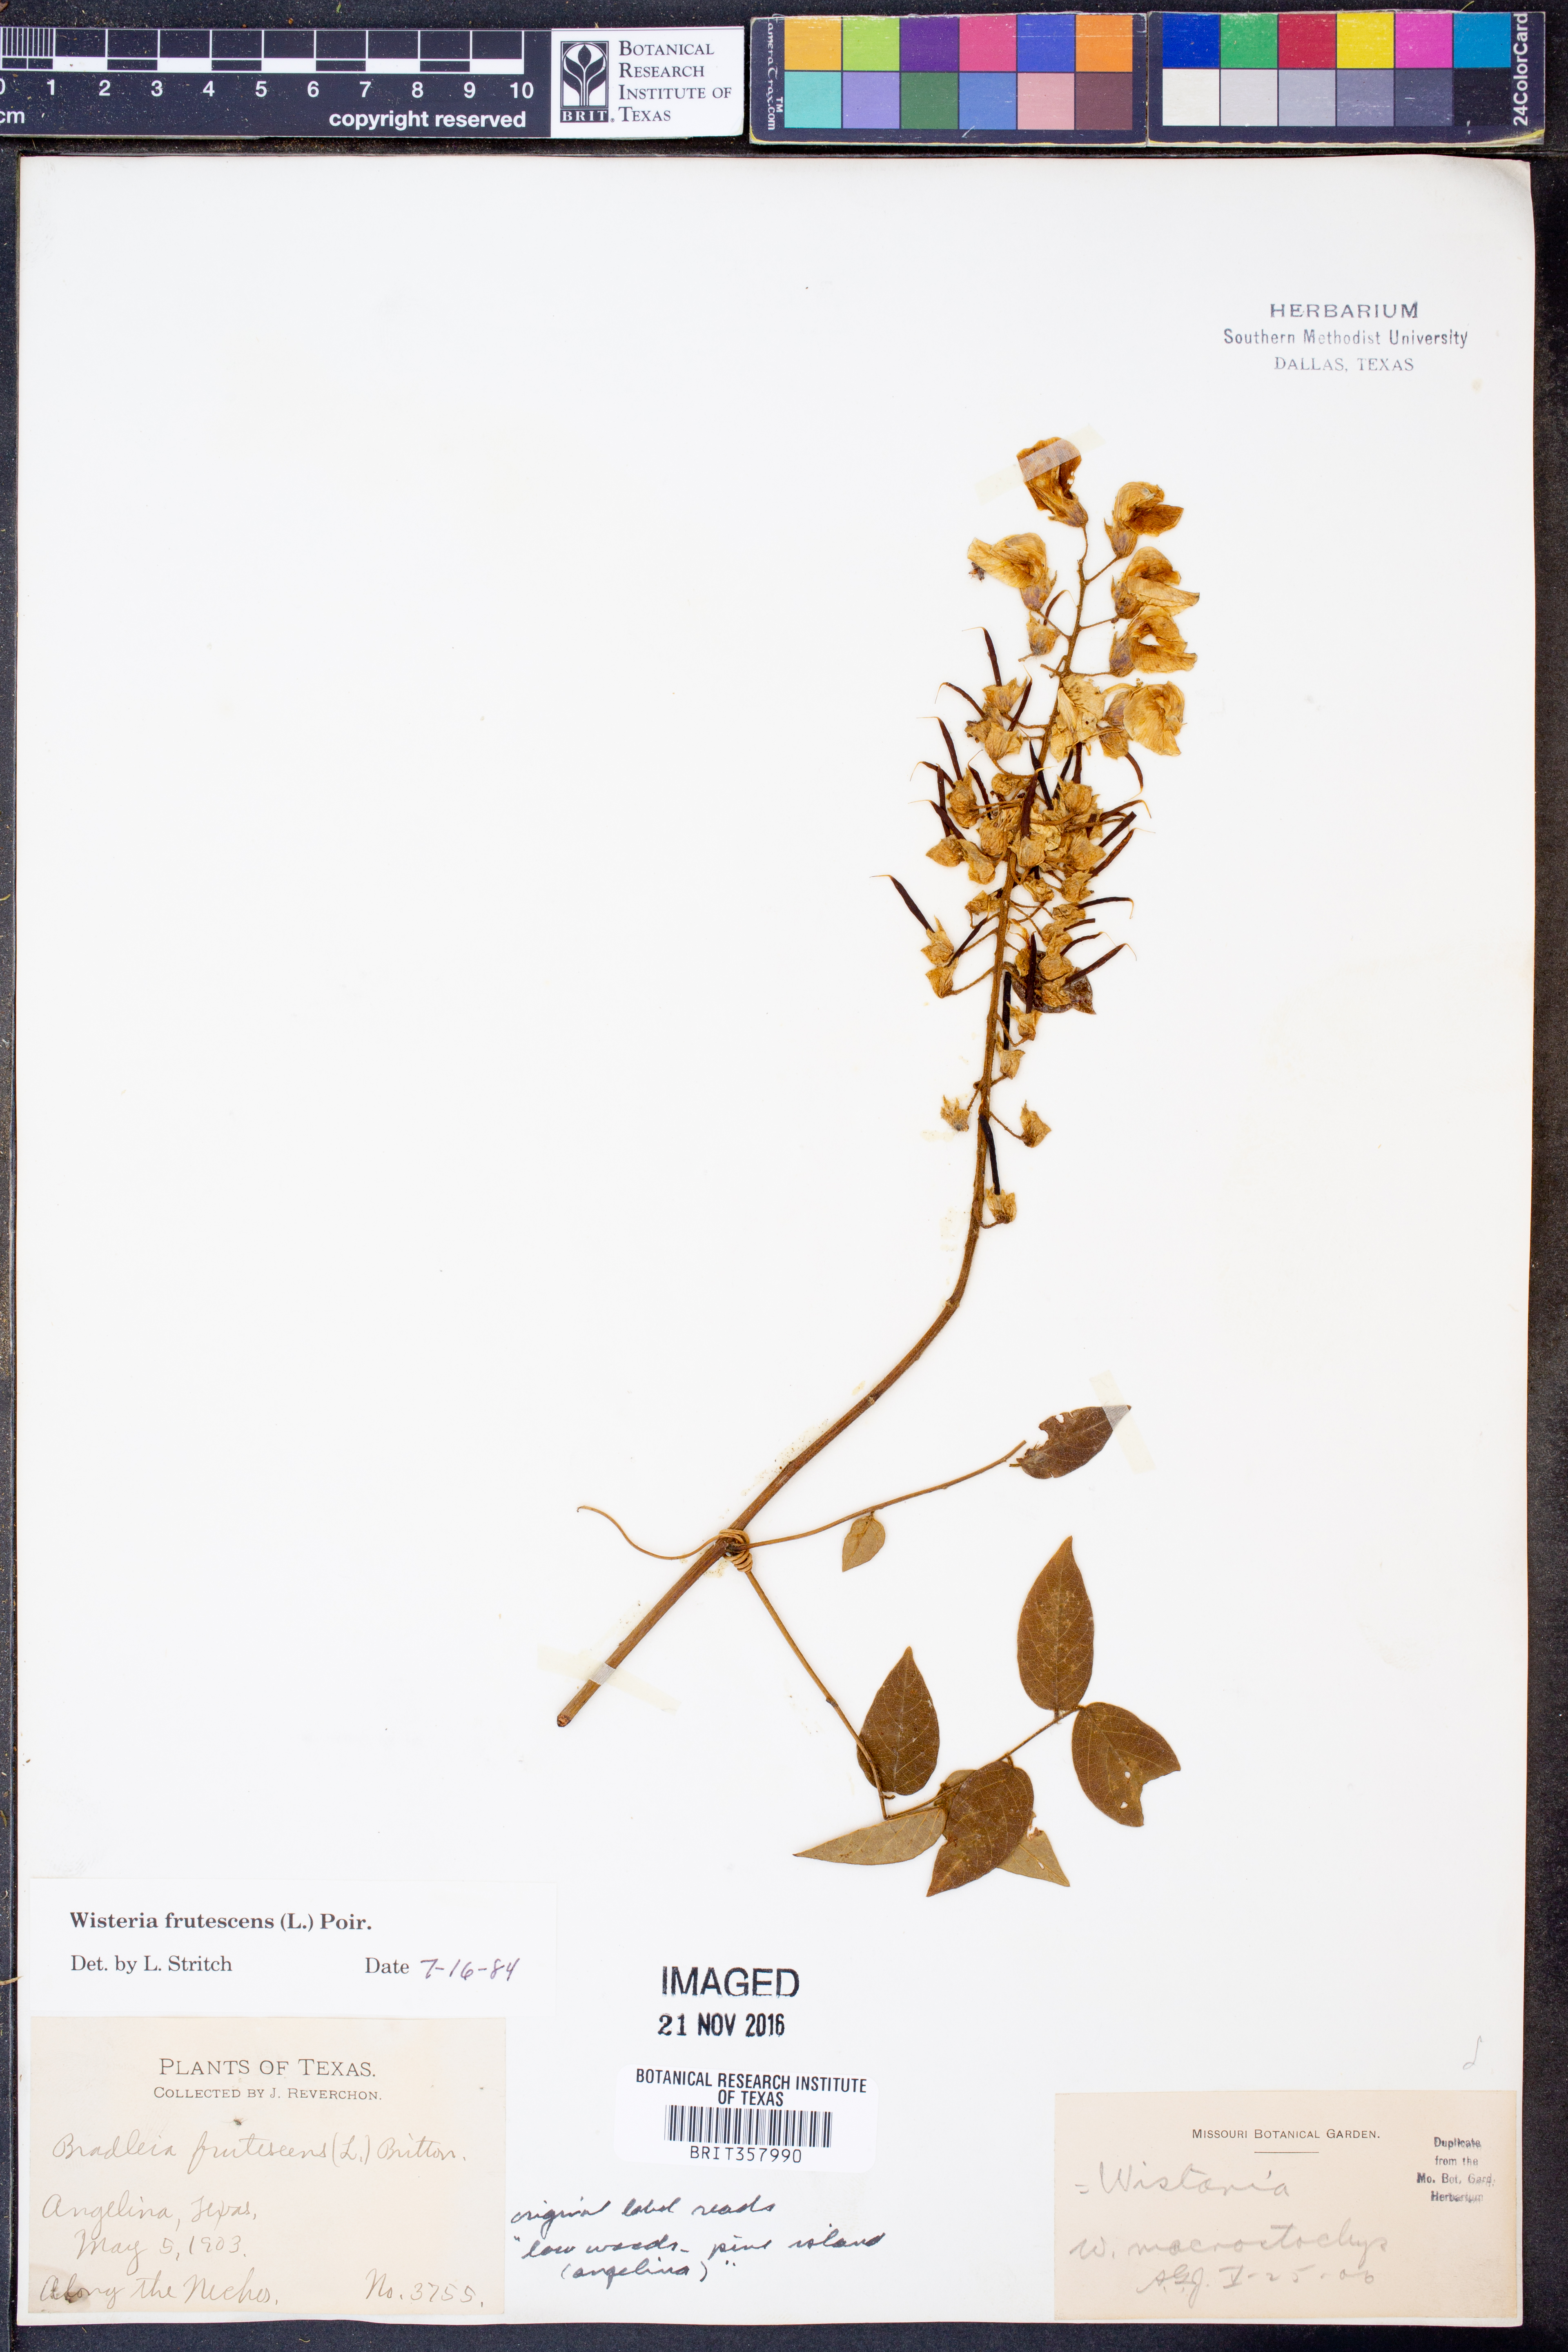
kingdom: Plantae
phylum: Tracheophyta
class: Magnoliopsida
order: Fabales
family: Fabaceae
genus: Wisteria
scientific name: Wisteria frutescens
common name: American wisteria
